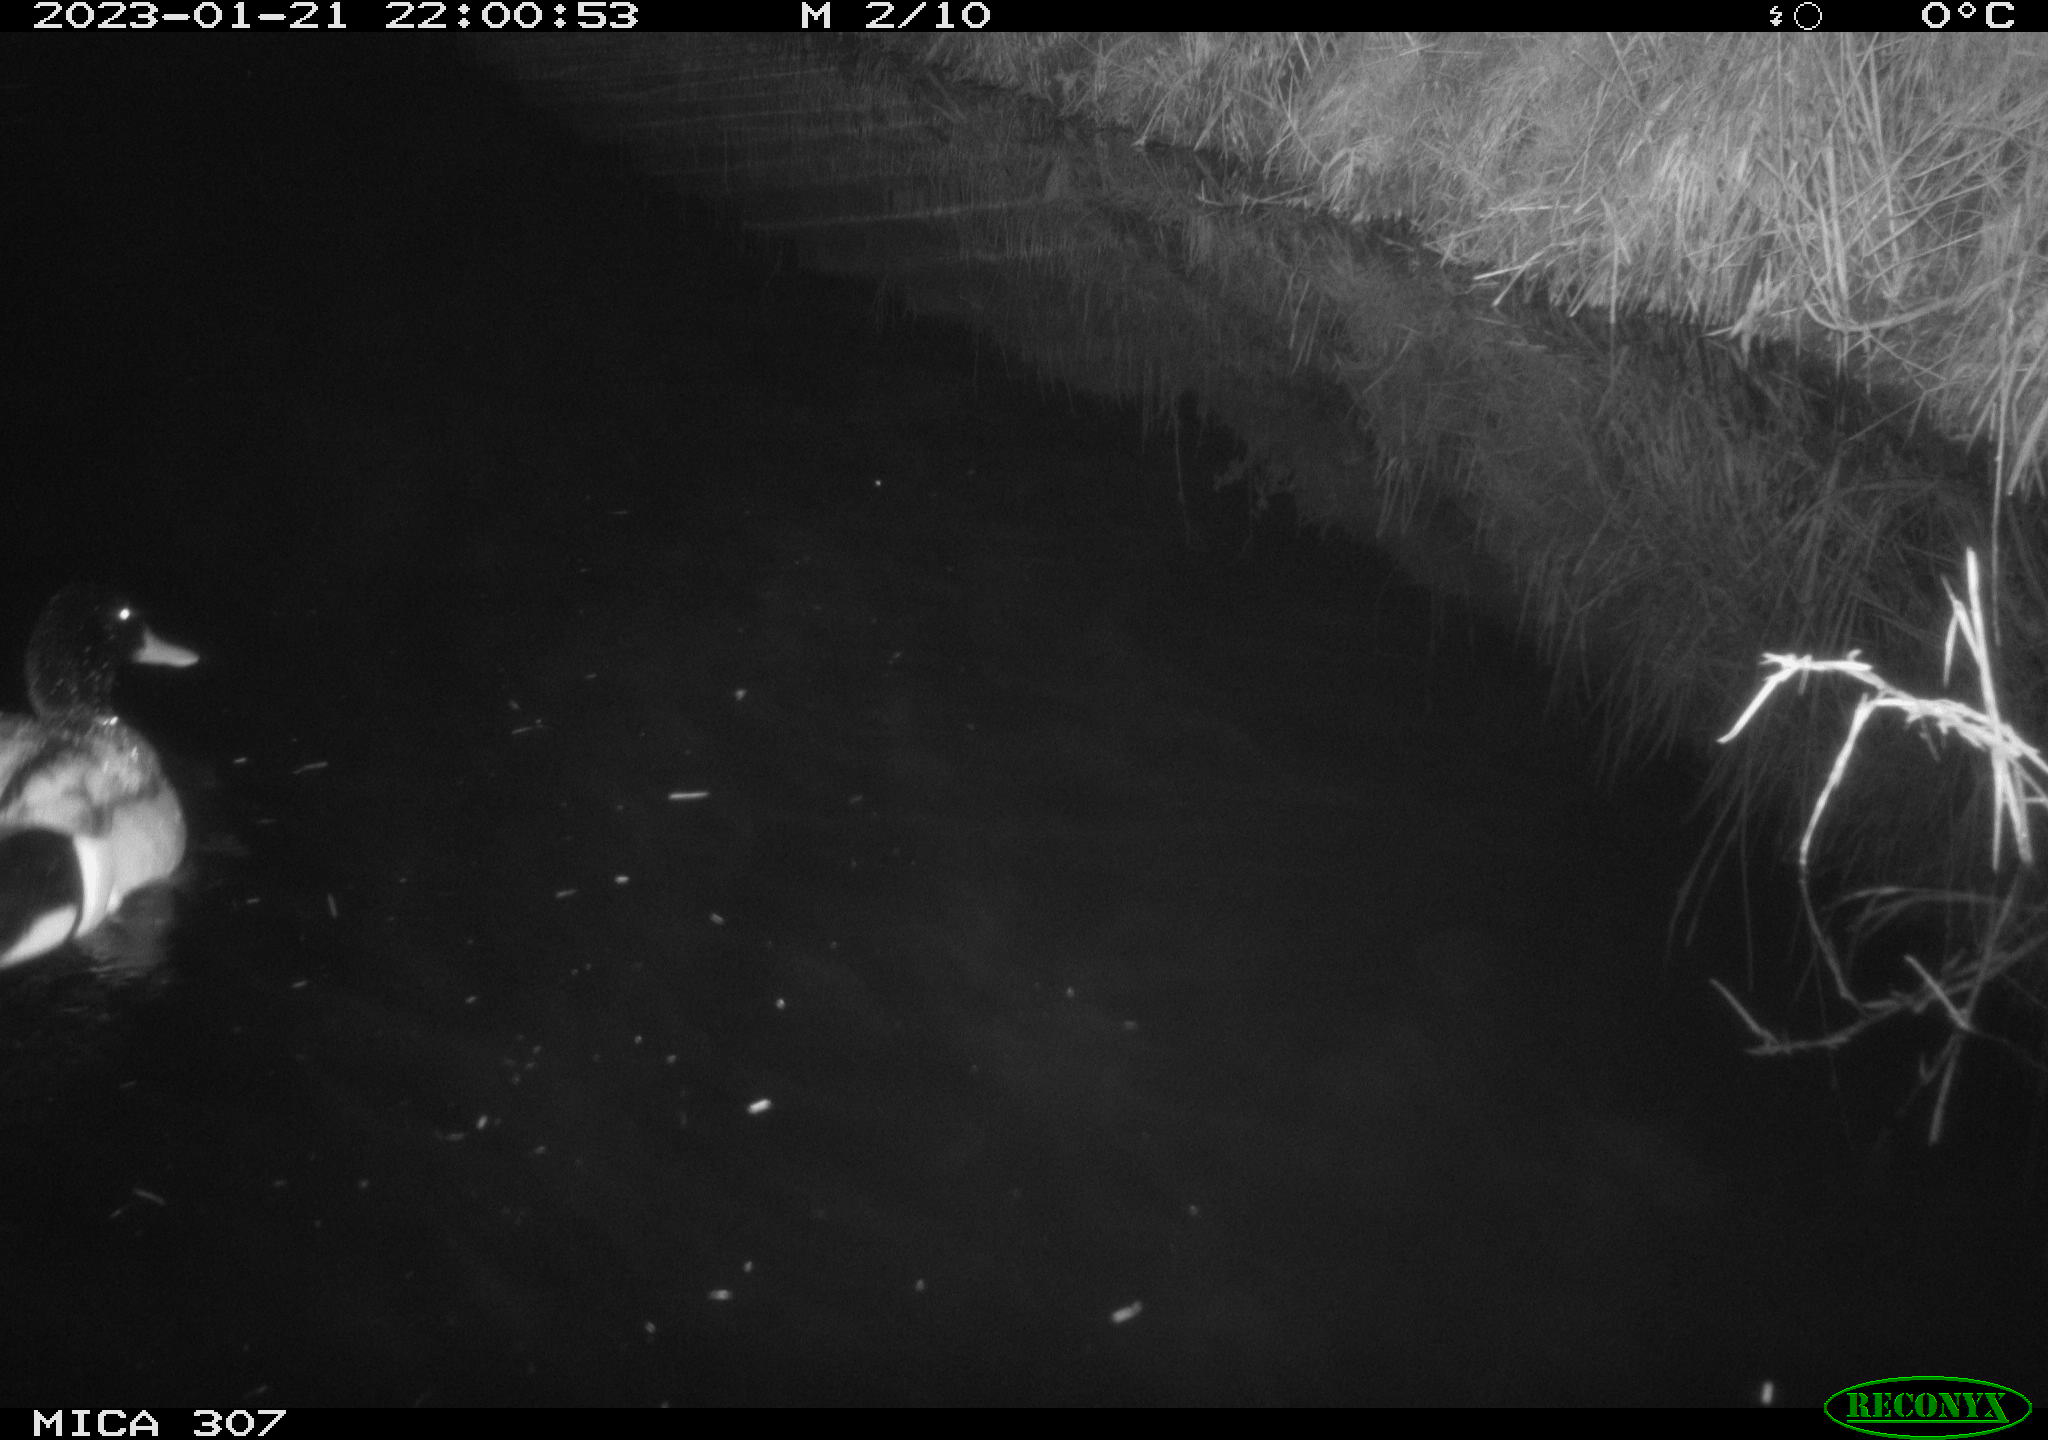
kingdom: Animalia
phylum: Chordata
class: Aves
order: Anseriformes
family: Anatidae
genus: Anas
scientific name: Anas
